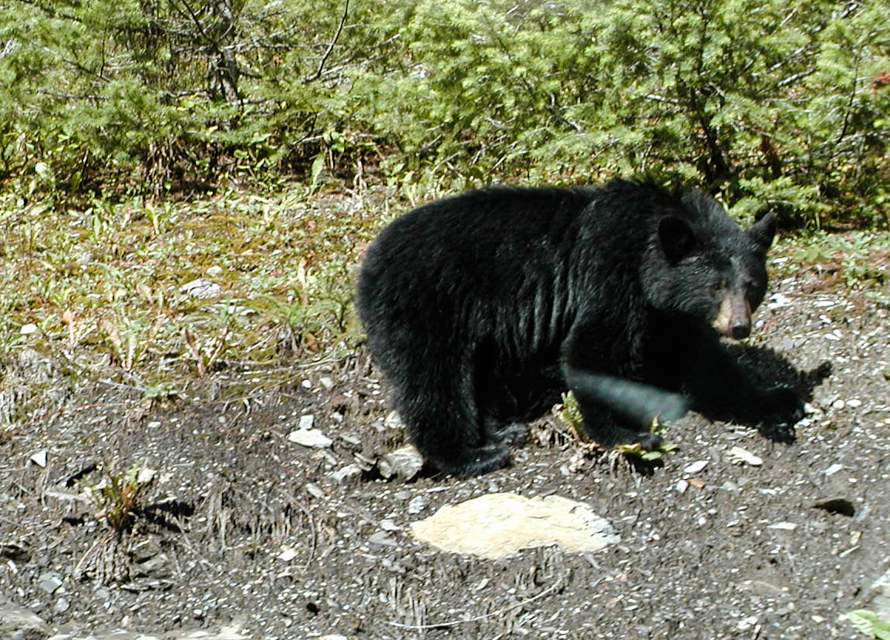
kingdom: Animalia
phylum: Chordata
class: Mammalia
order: Carnivora
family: Ursidae
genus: Ursus
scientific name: Ursus americanus
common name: American black bear
